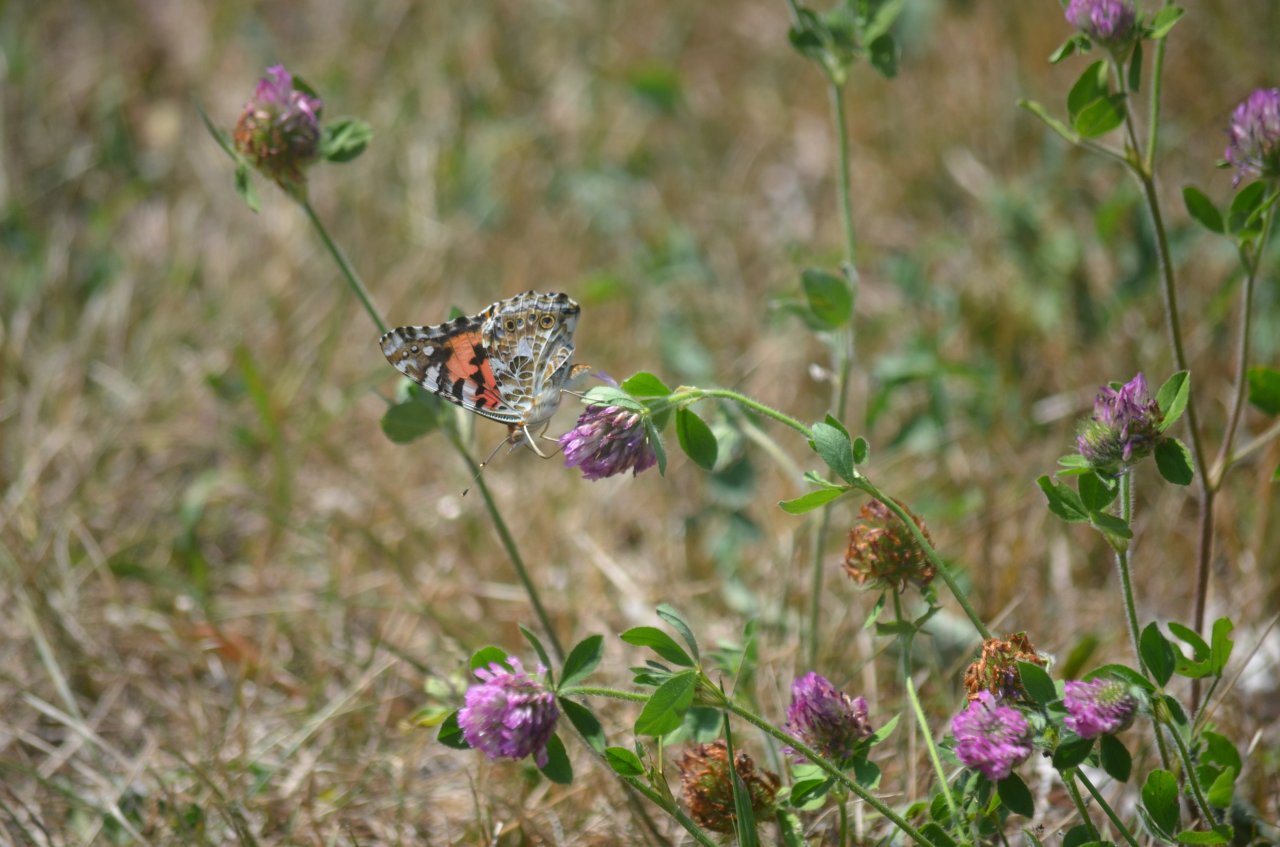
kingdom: Animalia
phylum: Arthropoda
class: Insecta
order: Lepidoptera
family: Nymphalidae
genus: Vanessa
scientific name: Vanessa cardui
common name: Painted Lady
